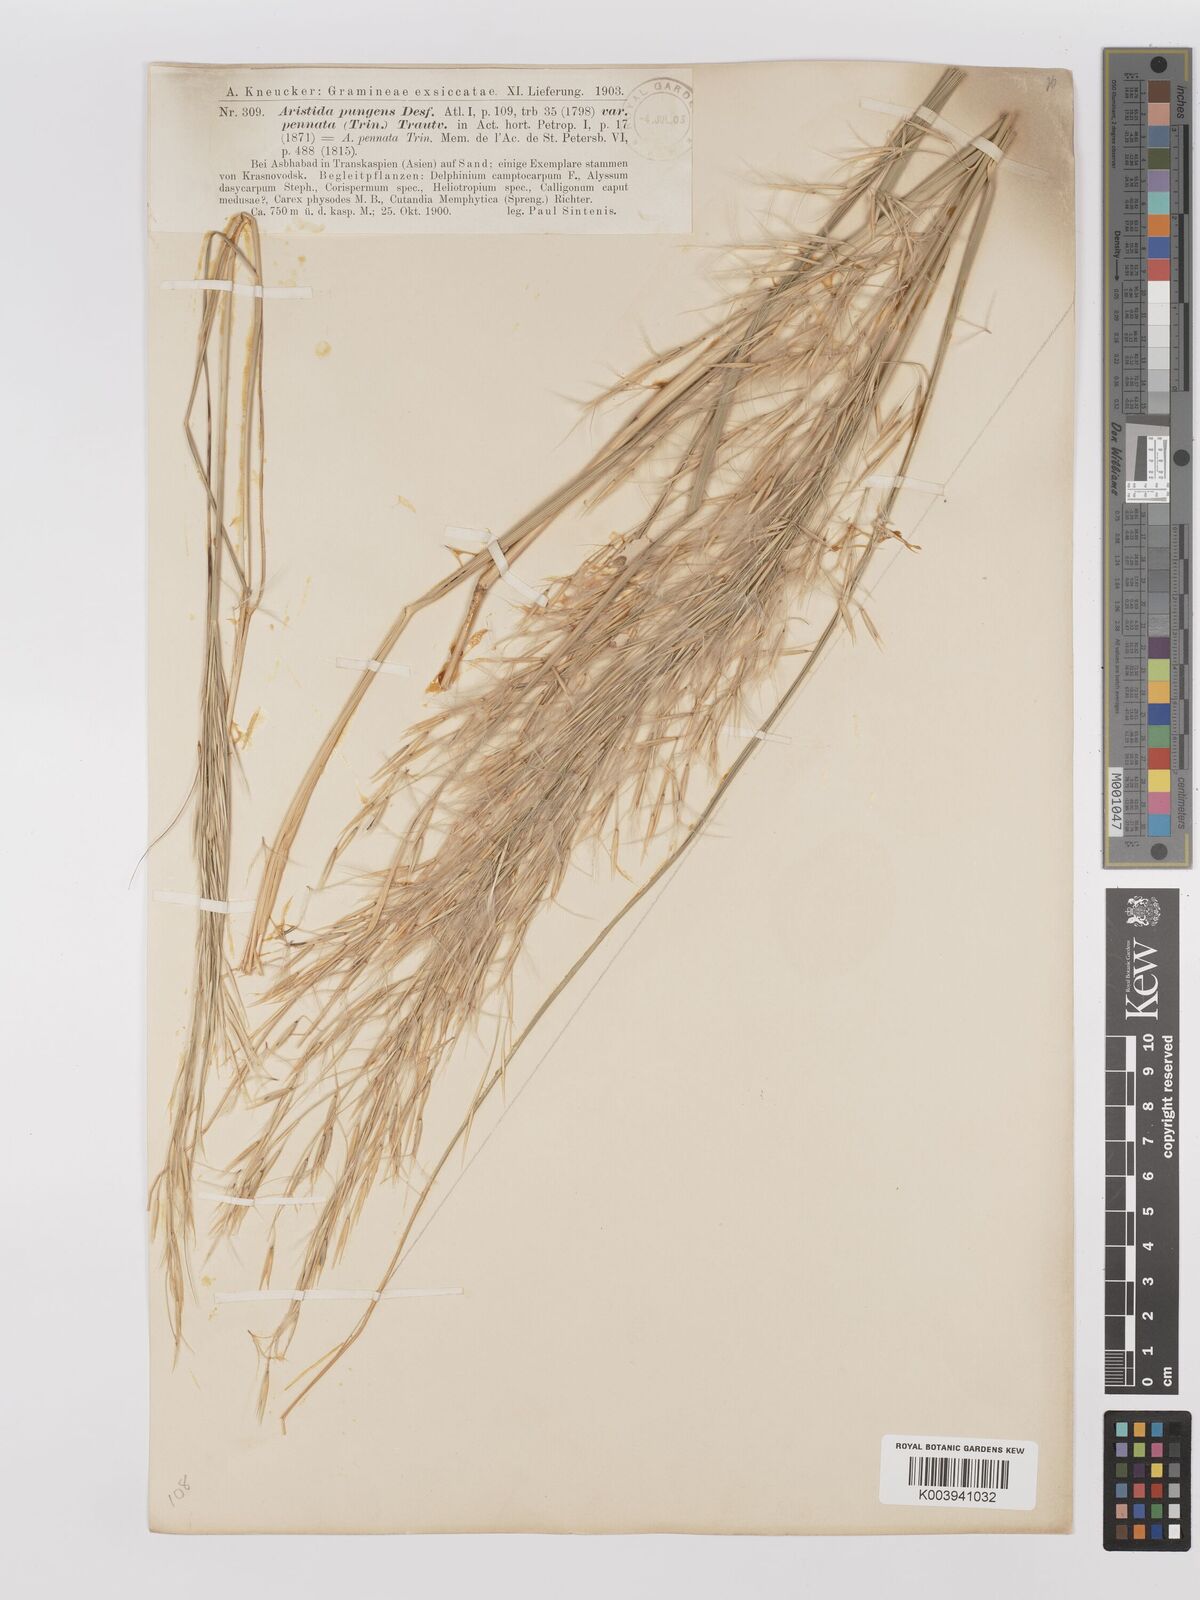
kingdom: Plantae
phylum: Tracheophyta
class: Liliopsida
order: Poales
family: Poaceae
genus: Stipagrostis
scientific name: Stipagrostis pungens
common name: Three-awn grass
